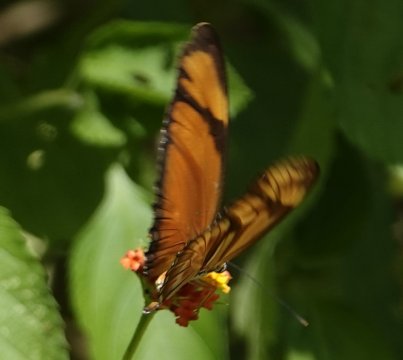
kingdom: Animalia
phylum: Arthropoda
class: Insecta
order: Lepidoptera
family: Nymphalidae
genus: Dryas
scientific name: Dryas iulia
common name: Julia
